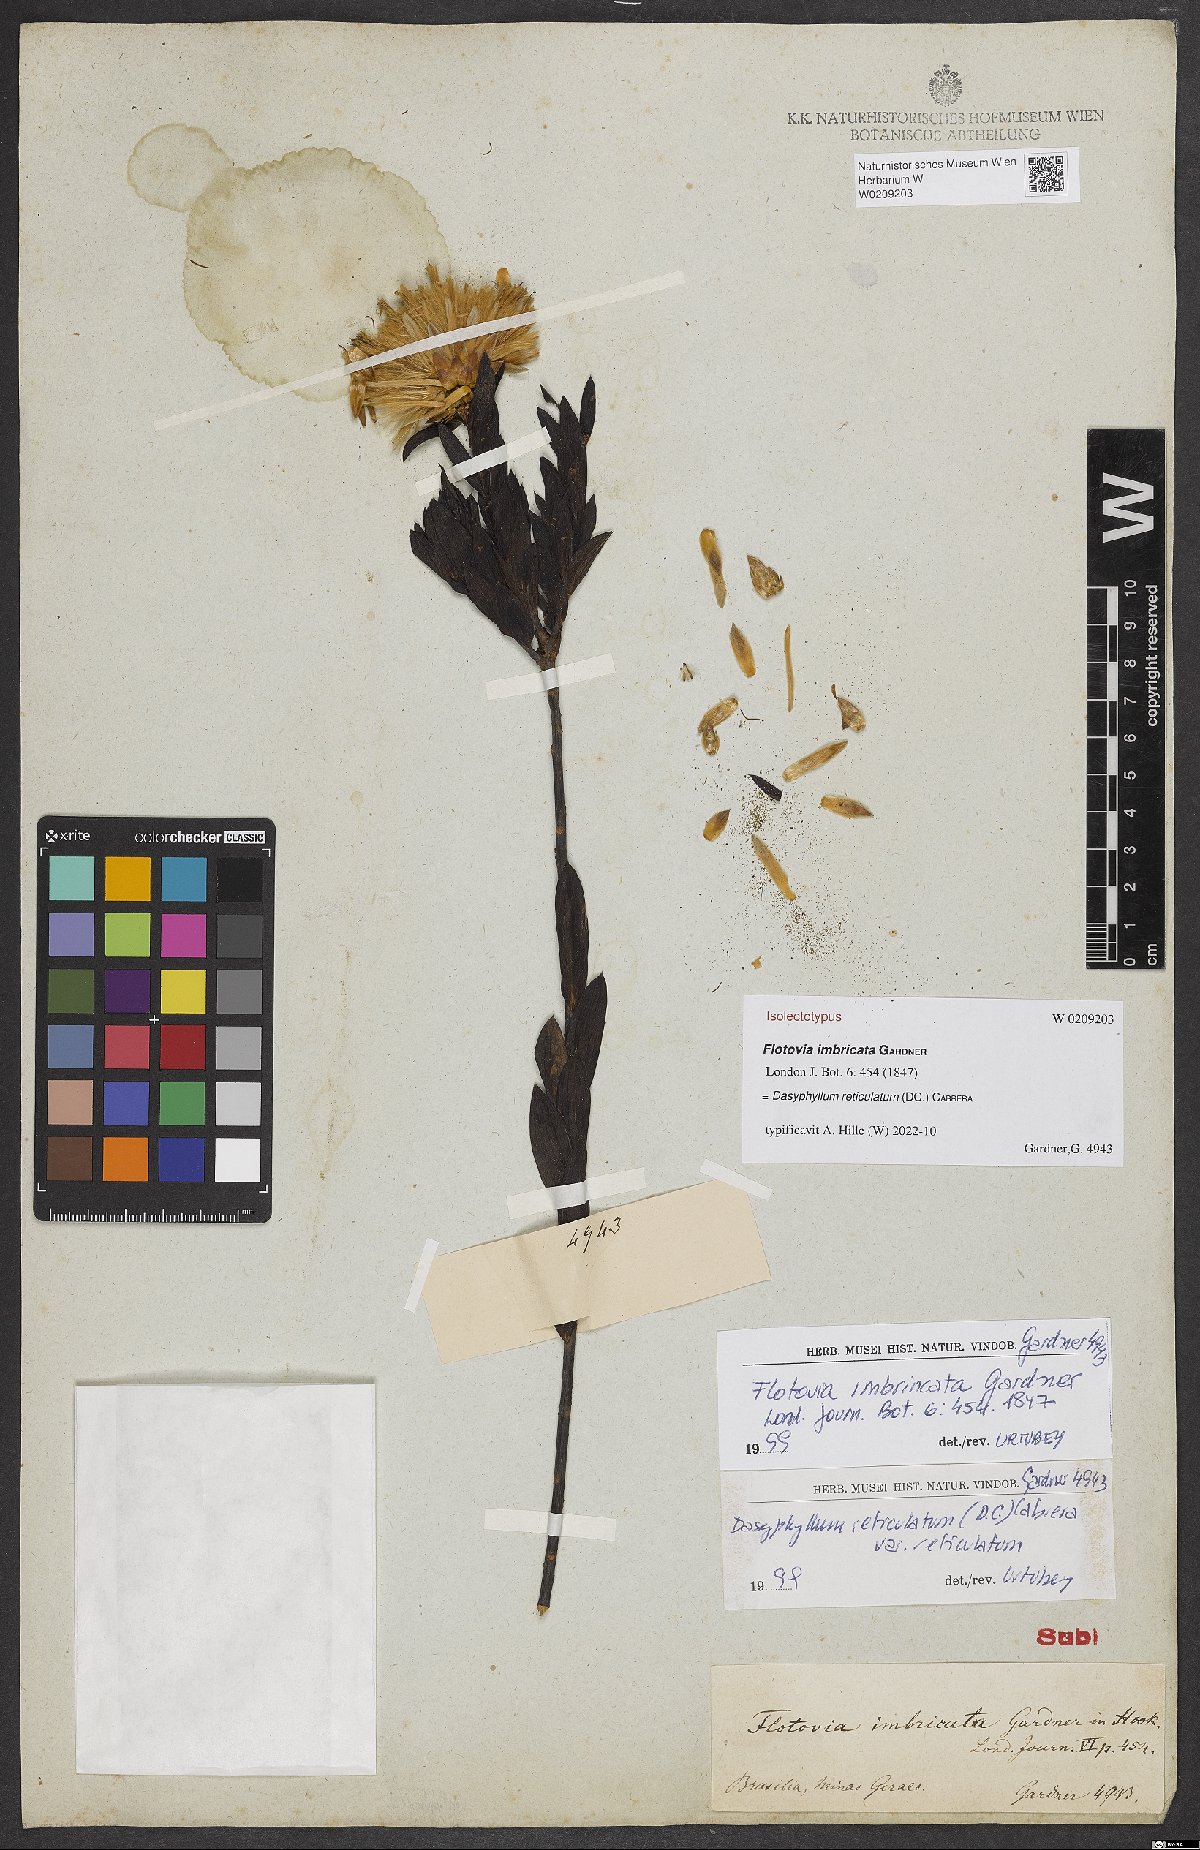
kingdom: Plantae
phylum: Tracheophyta
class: Magnoliopsida
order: Asterales
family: Asteraceae
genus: Dasyphyllum
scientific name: Dasyphyllum reticulatum
